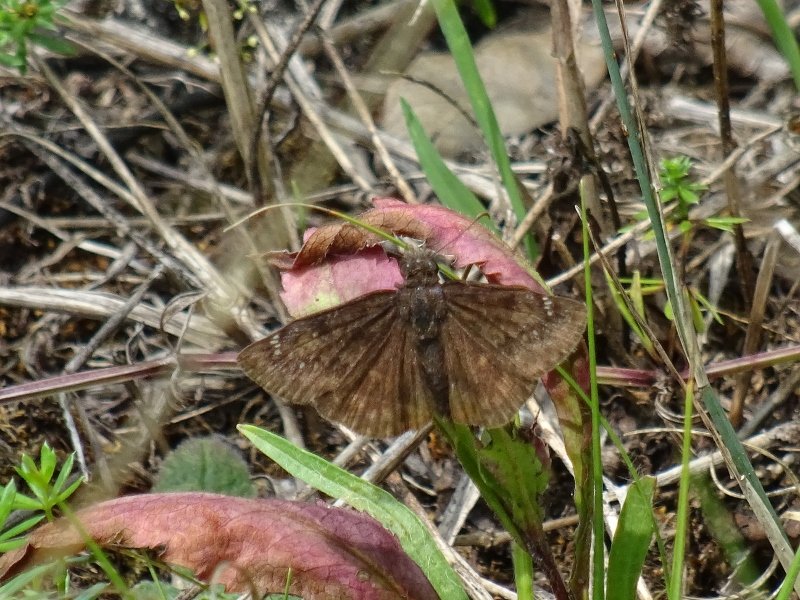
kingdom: Animalia
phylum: Arthropoda
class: Insecta
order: Lepidoptera
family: Hesperiidae
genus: Gesta
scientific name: Gesta
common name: Wild Indigo Duskywing
